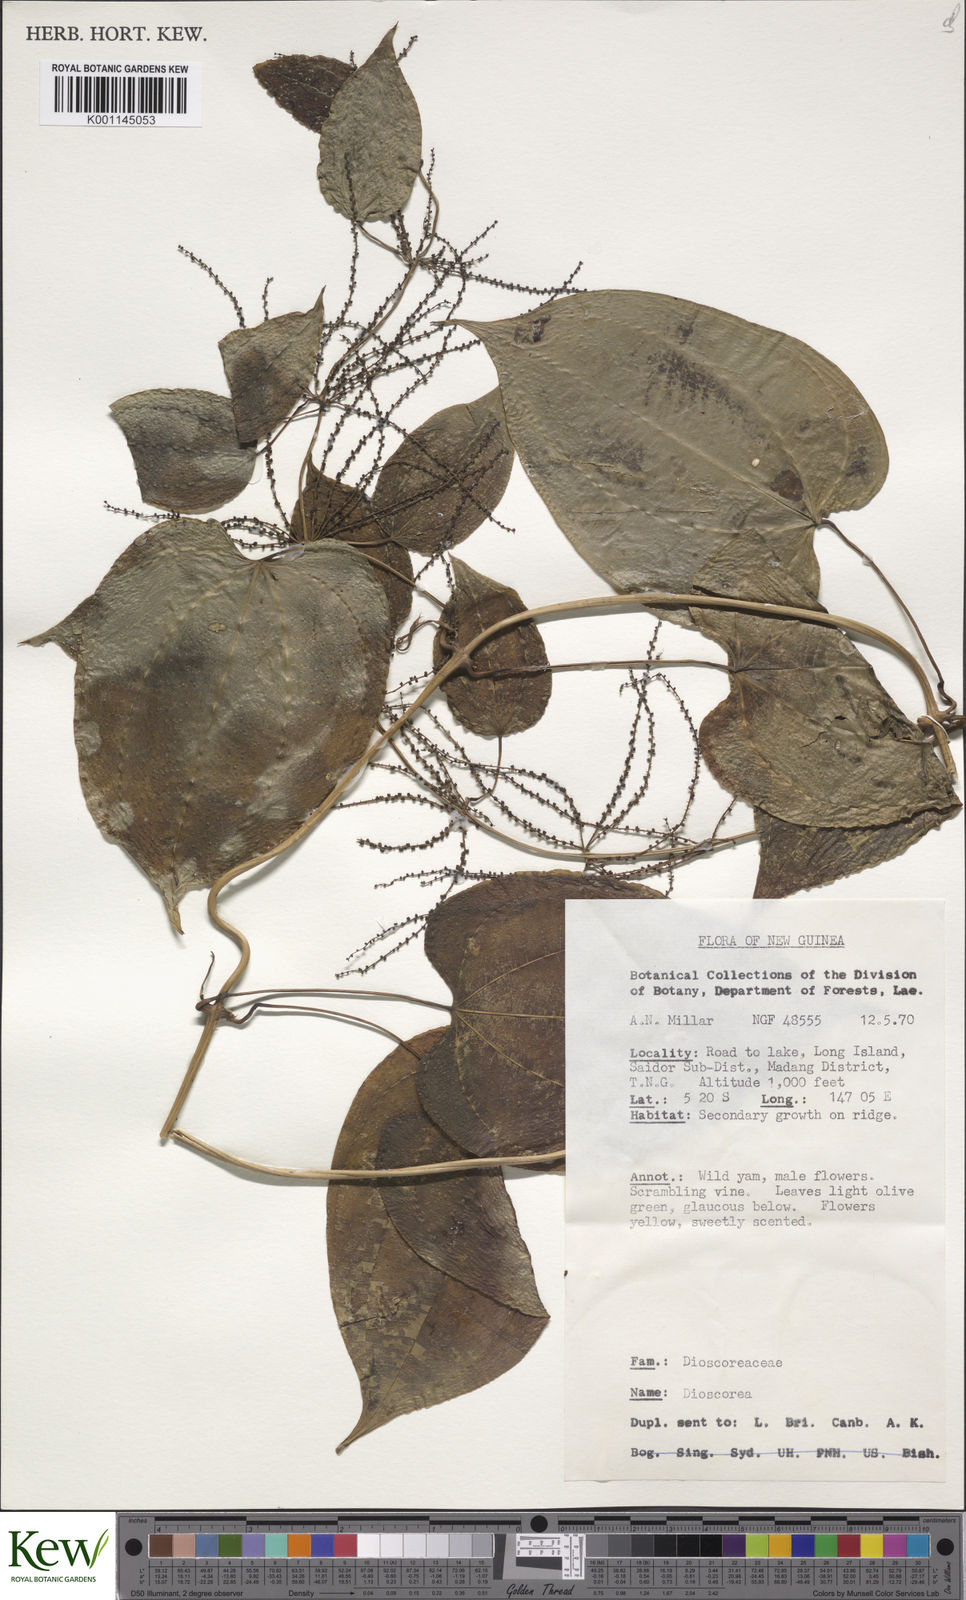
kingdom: Plantae
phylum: Tracheophyta
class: Liliopsida
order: Dioscoreales
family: Dioscoreaceae
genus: Dioscorea
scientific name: Dioscorea
